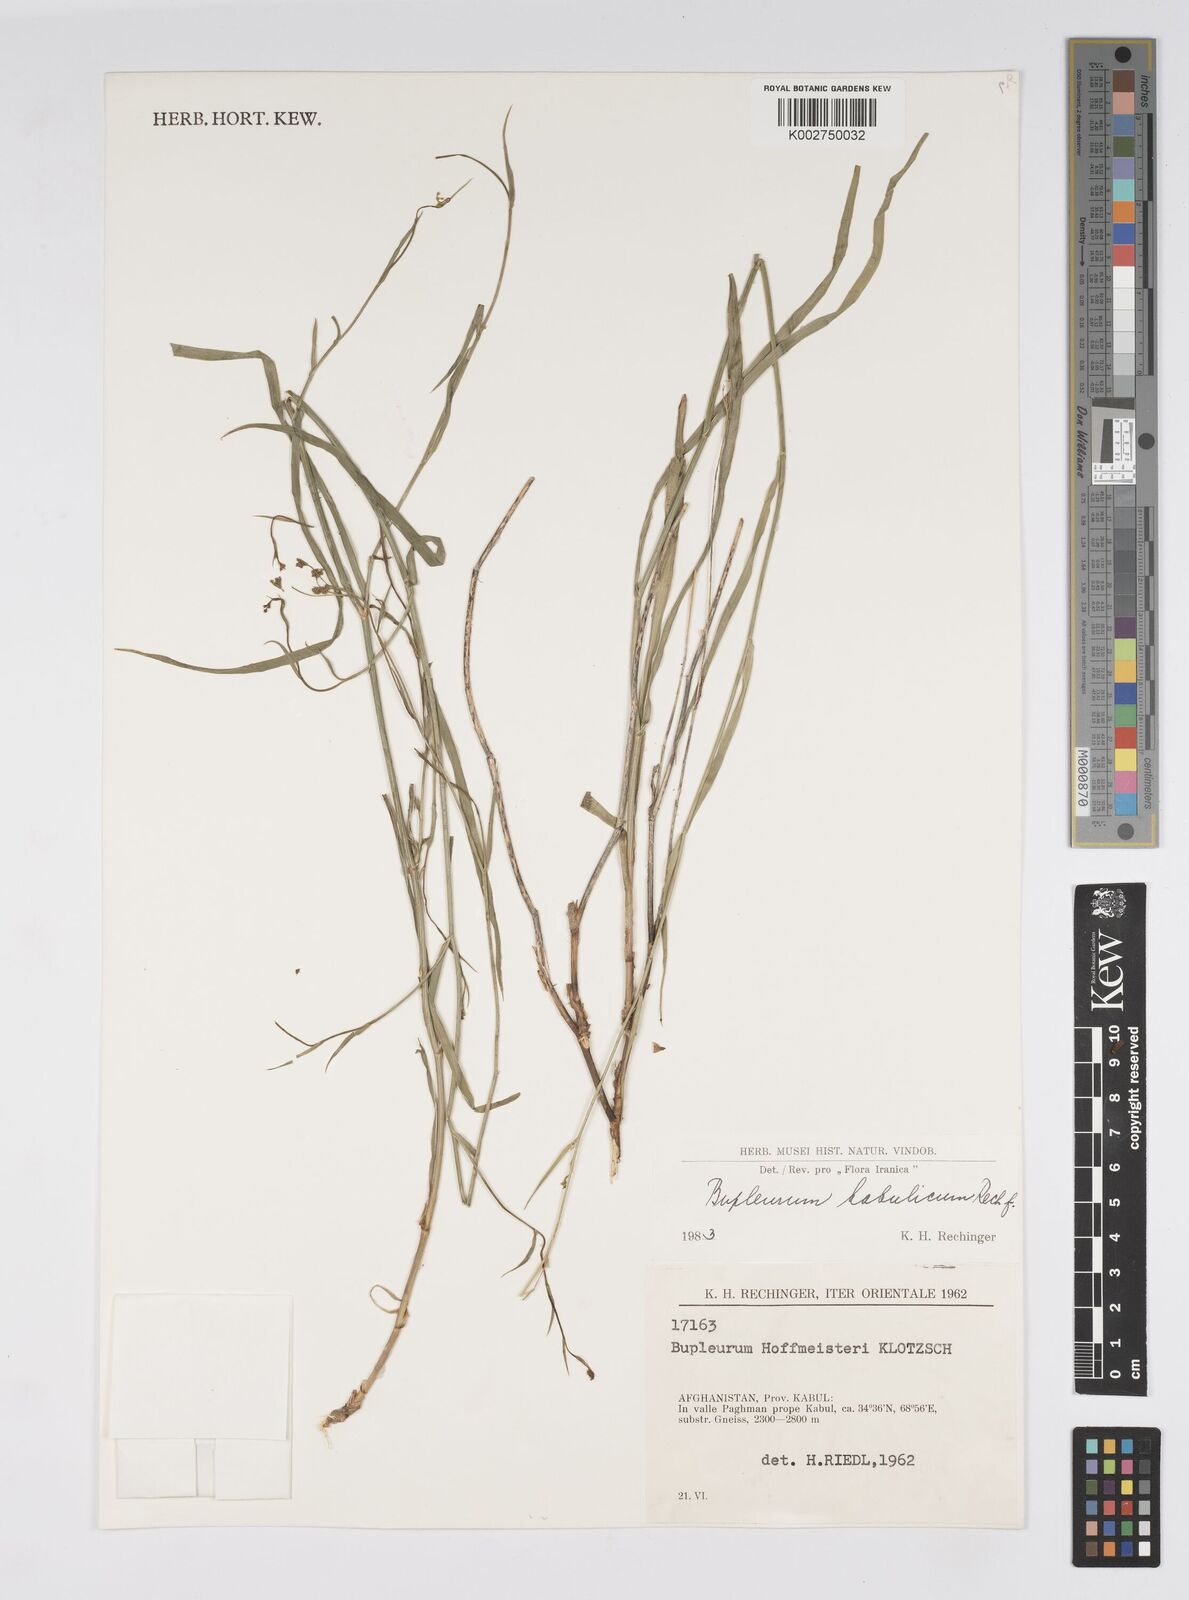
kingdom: Plantae
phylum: Tracheophyta
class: Magnoliopsida
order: Apiales
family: Apiaceae
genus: Bupleurum
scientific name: Bupleurum kabulicum
